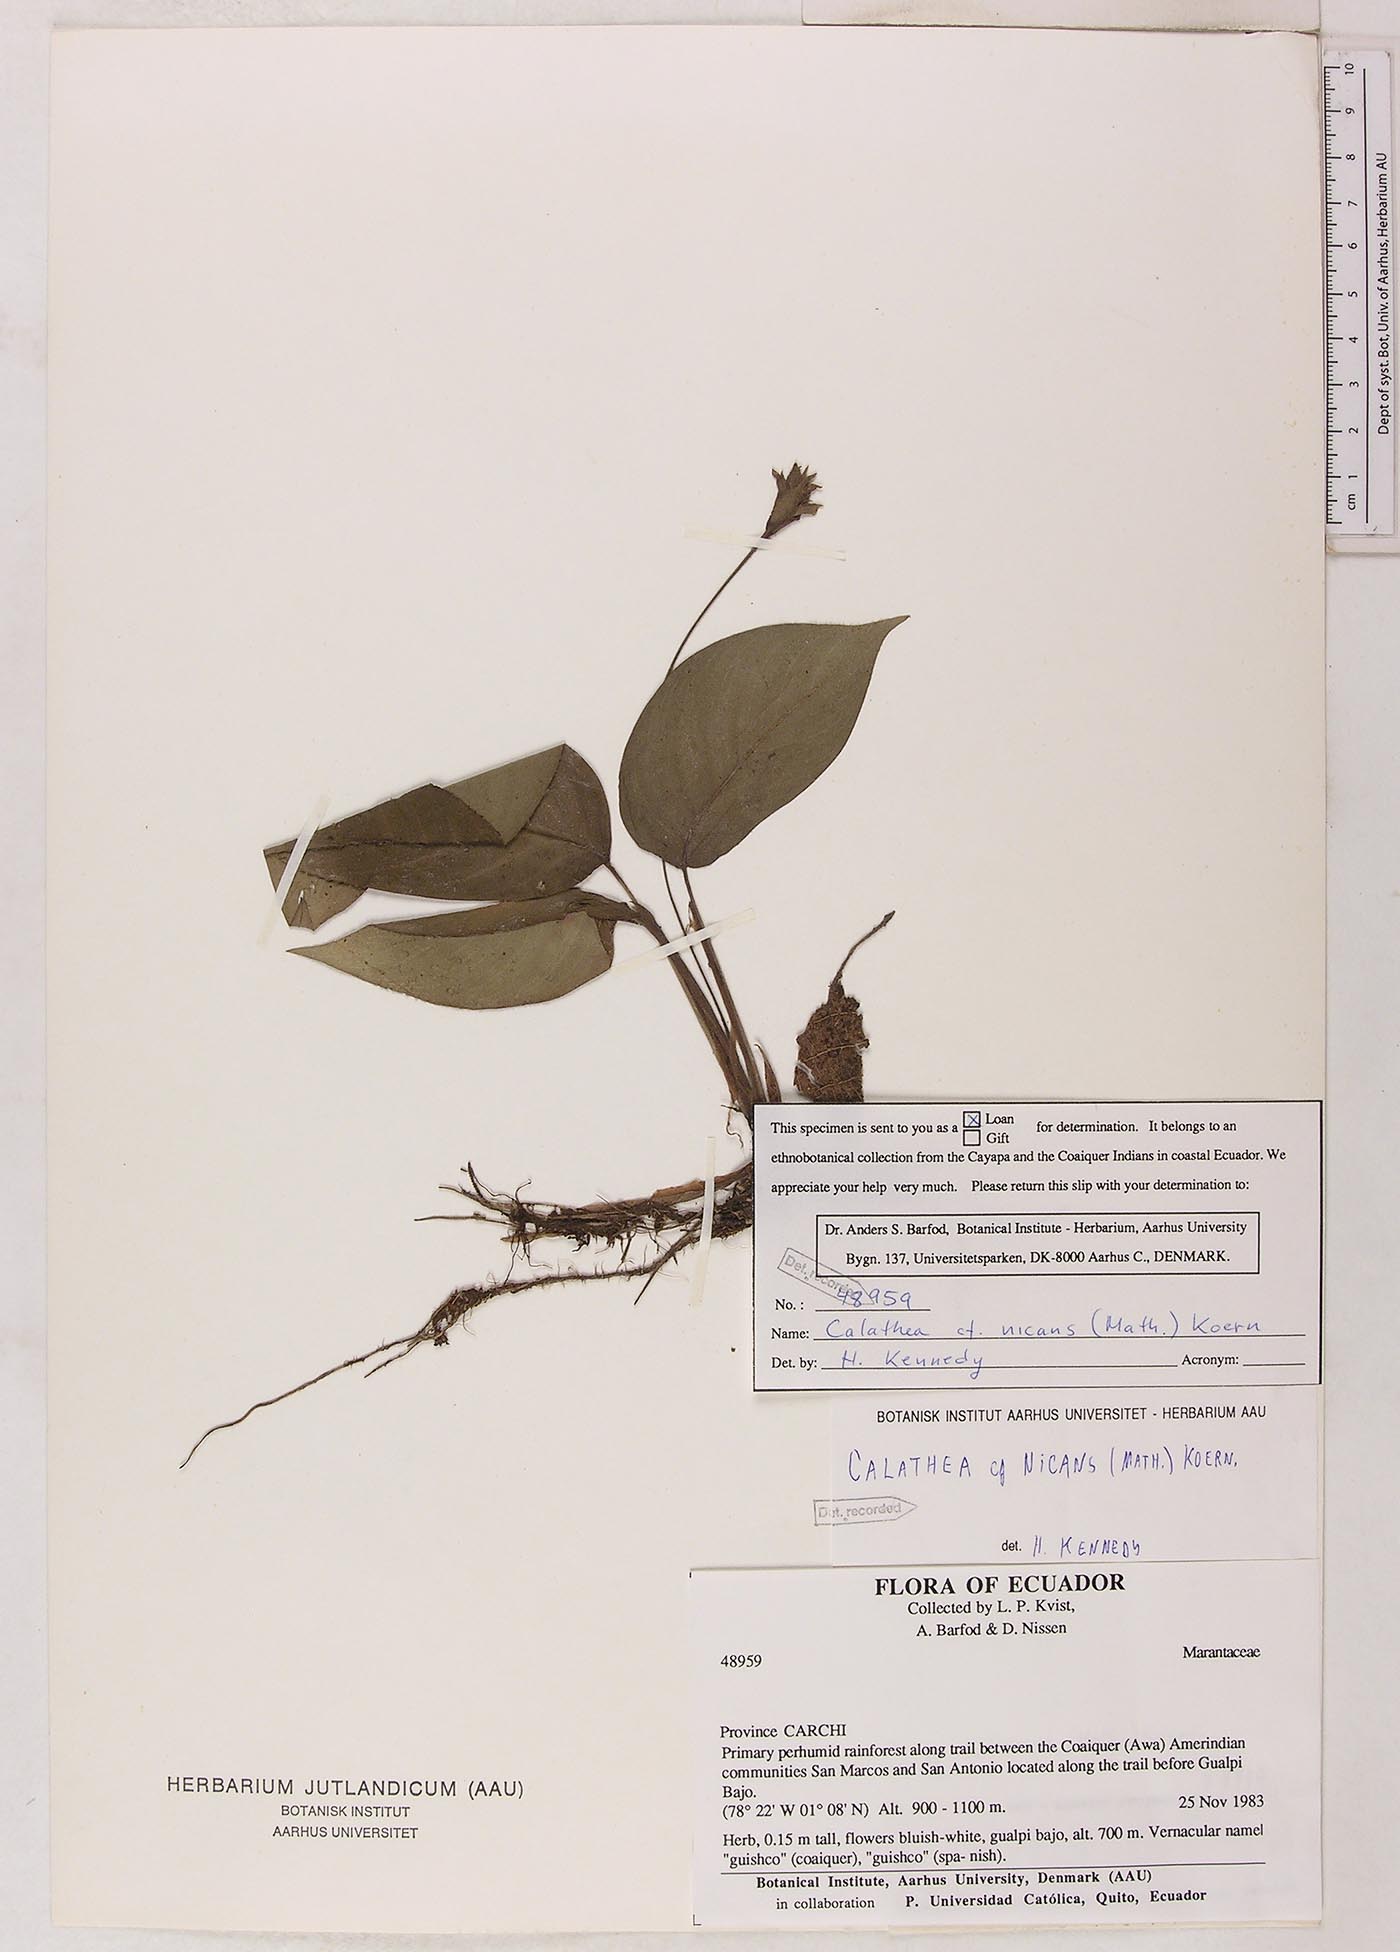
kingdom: Plantae
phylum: Tracheophyta
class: Liliopsida
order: Zingiberales
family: Marantaceae
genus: Goeppertia
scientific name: Goeppertia micans
